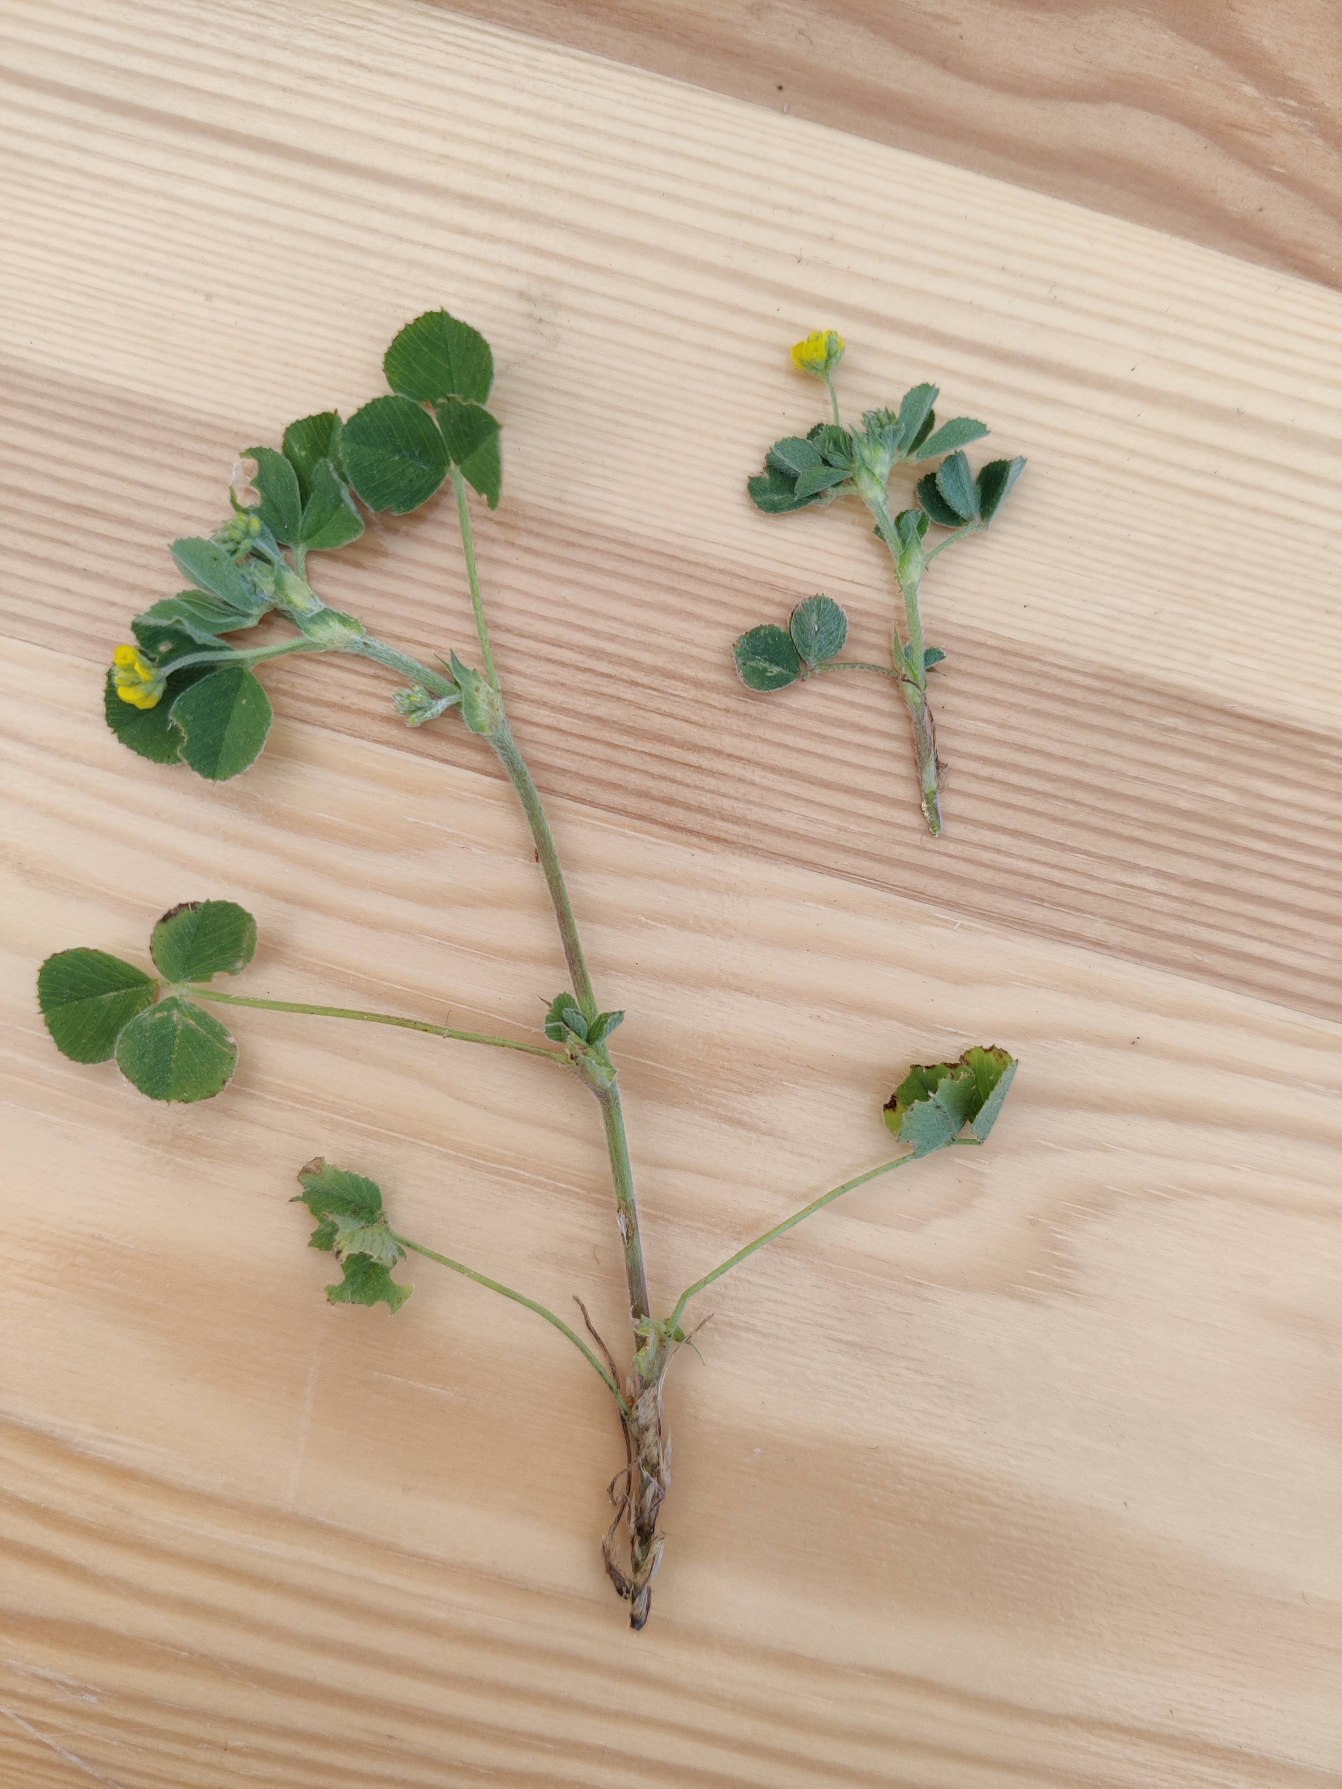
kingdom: Plantae
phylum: Tracheophyta
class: Magnoliopsida
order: Fabales
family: Fabaceae
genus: Medicago
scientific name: Medicago lupulina
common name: Humle-sneglebælg
